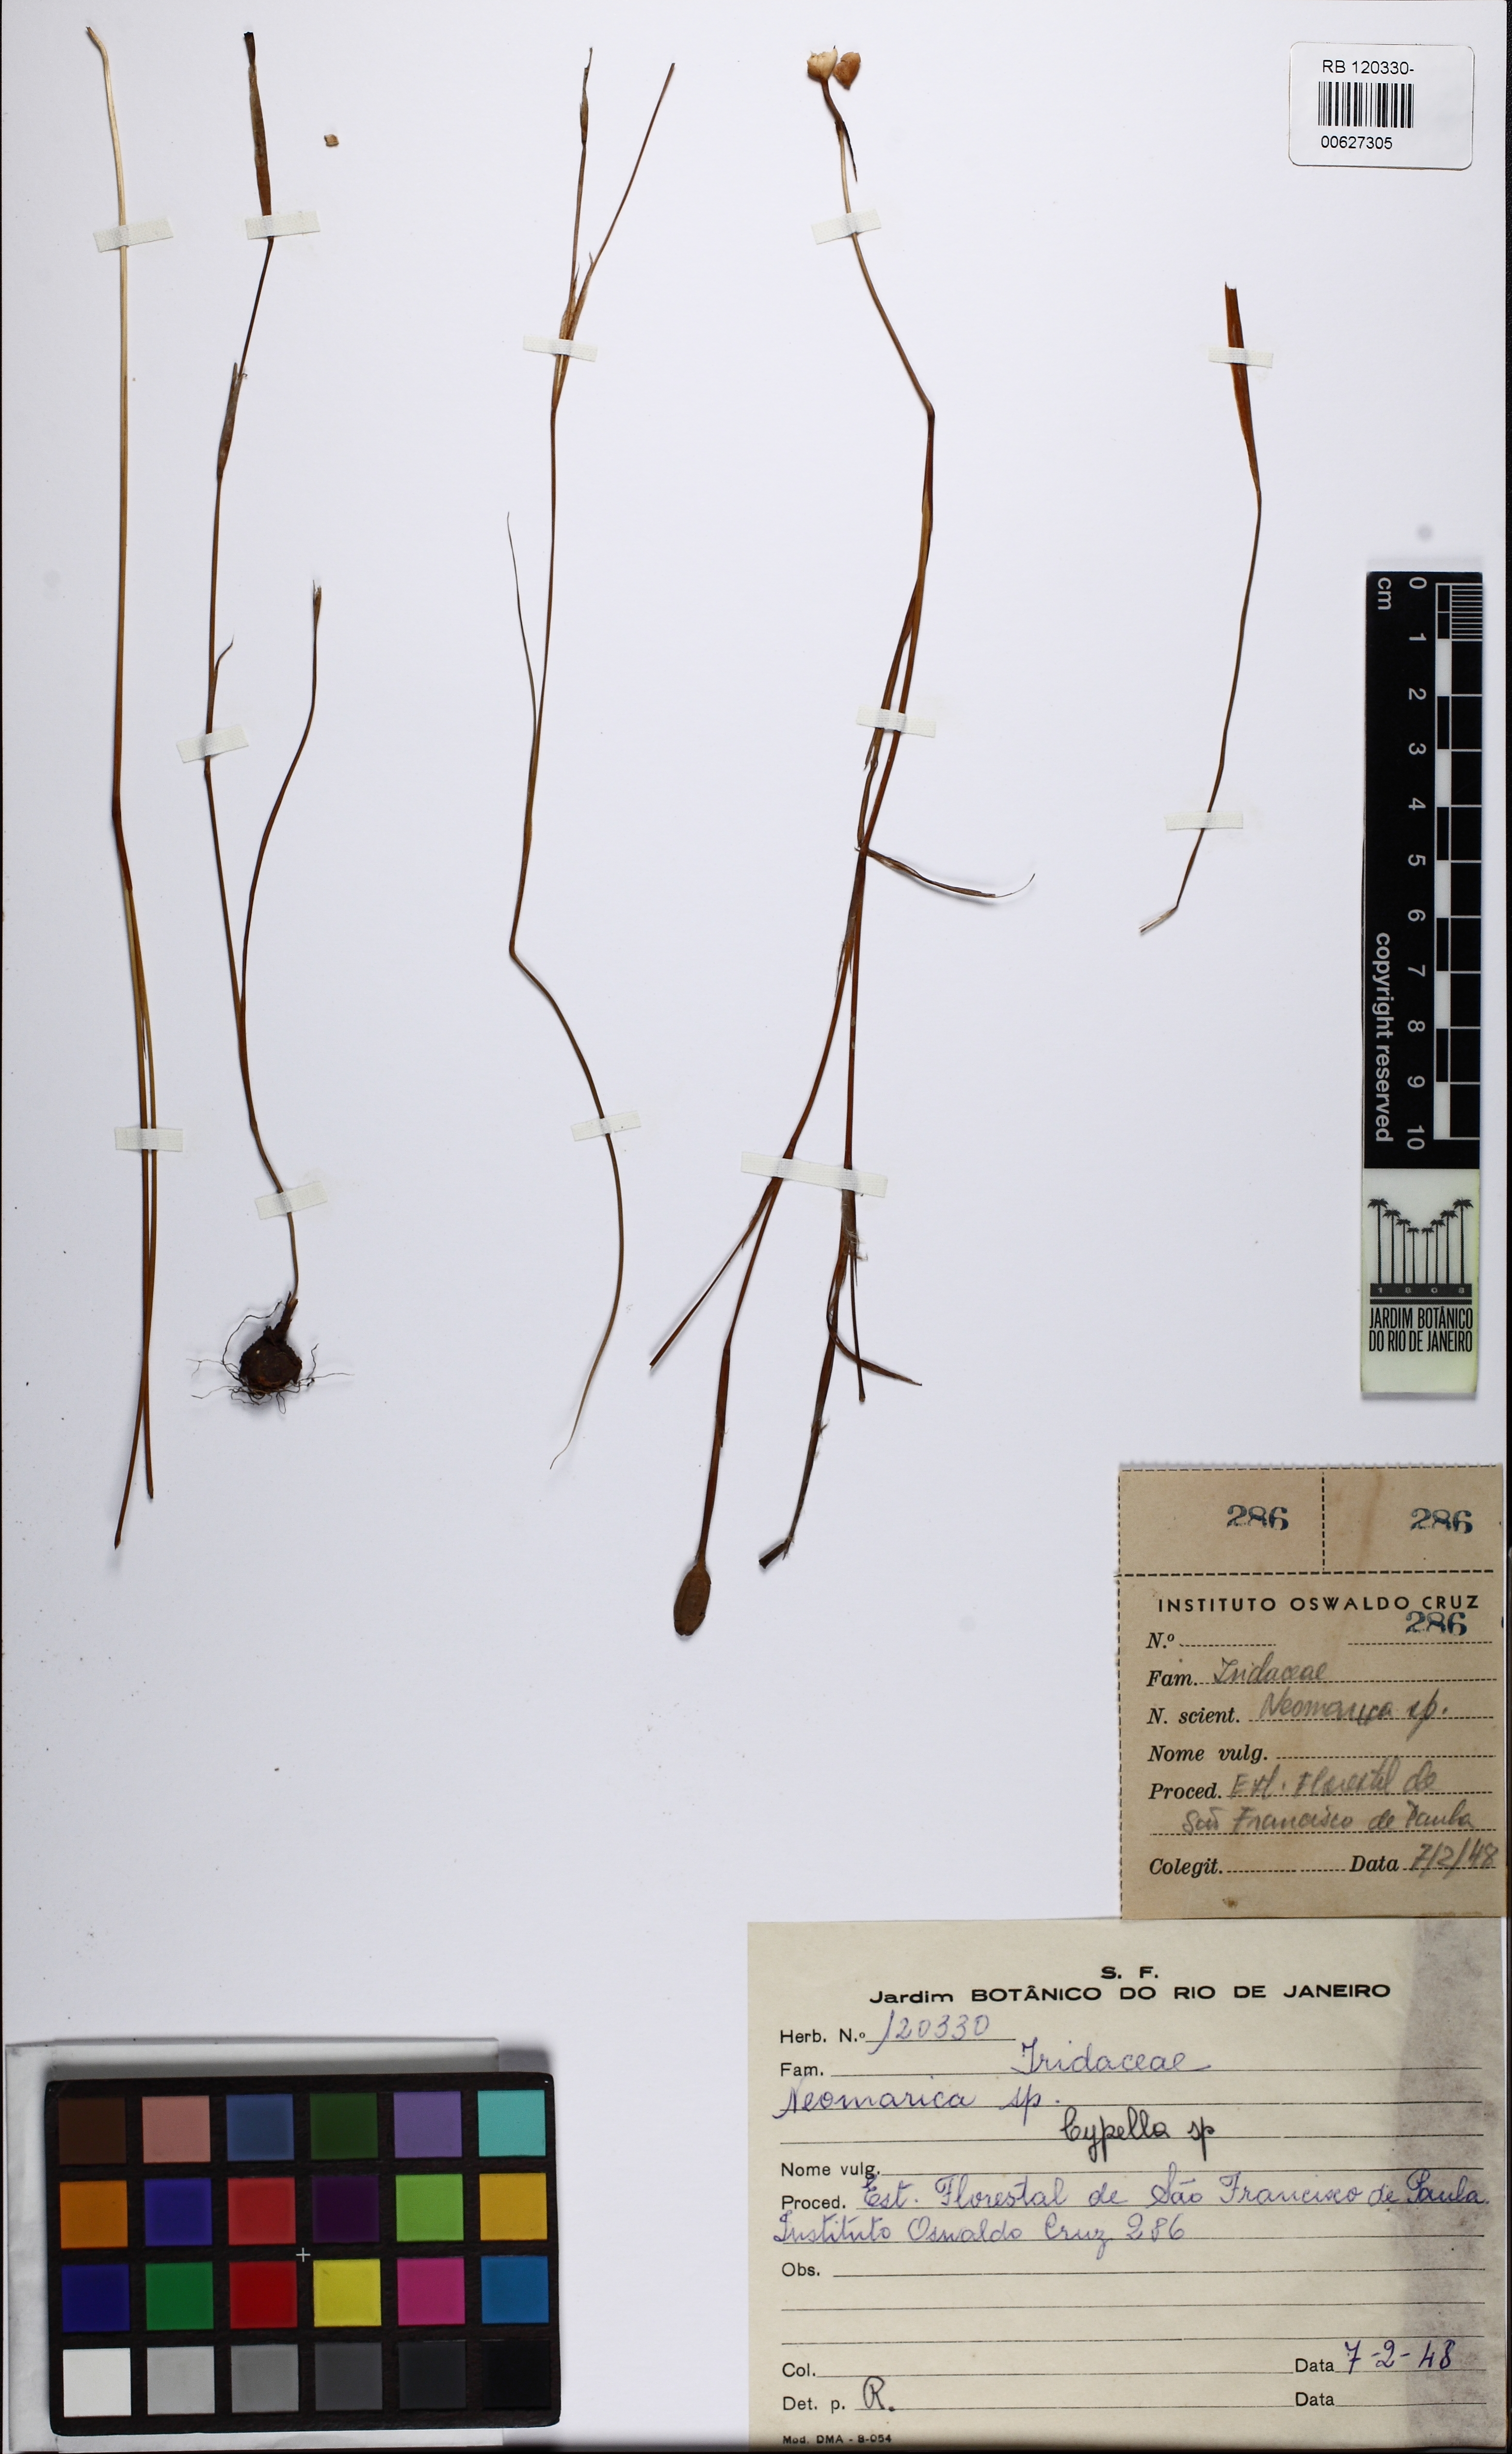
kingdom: Plantae
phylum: Tracheophyta
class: Liliopsida
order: Asparagales
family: Iridaceae
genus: Cypella
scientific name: Cypella
